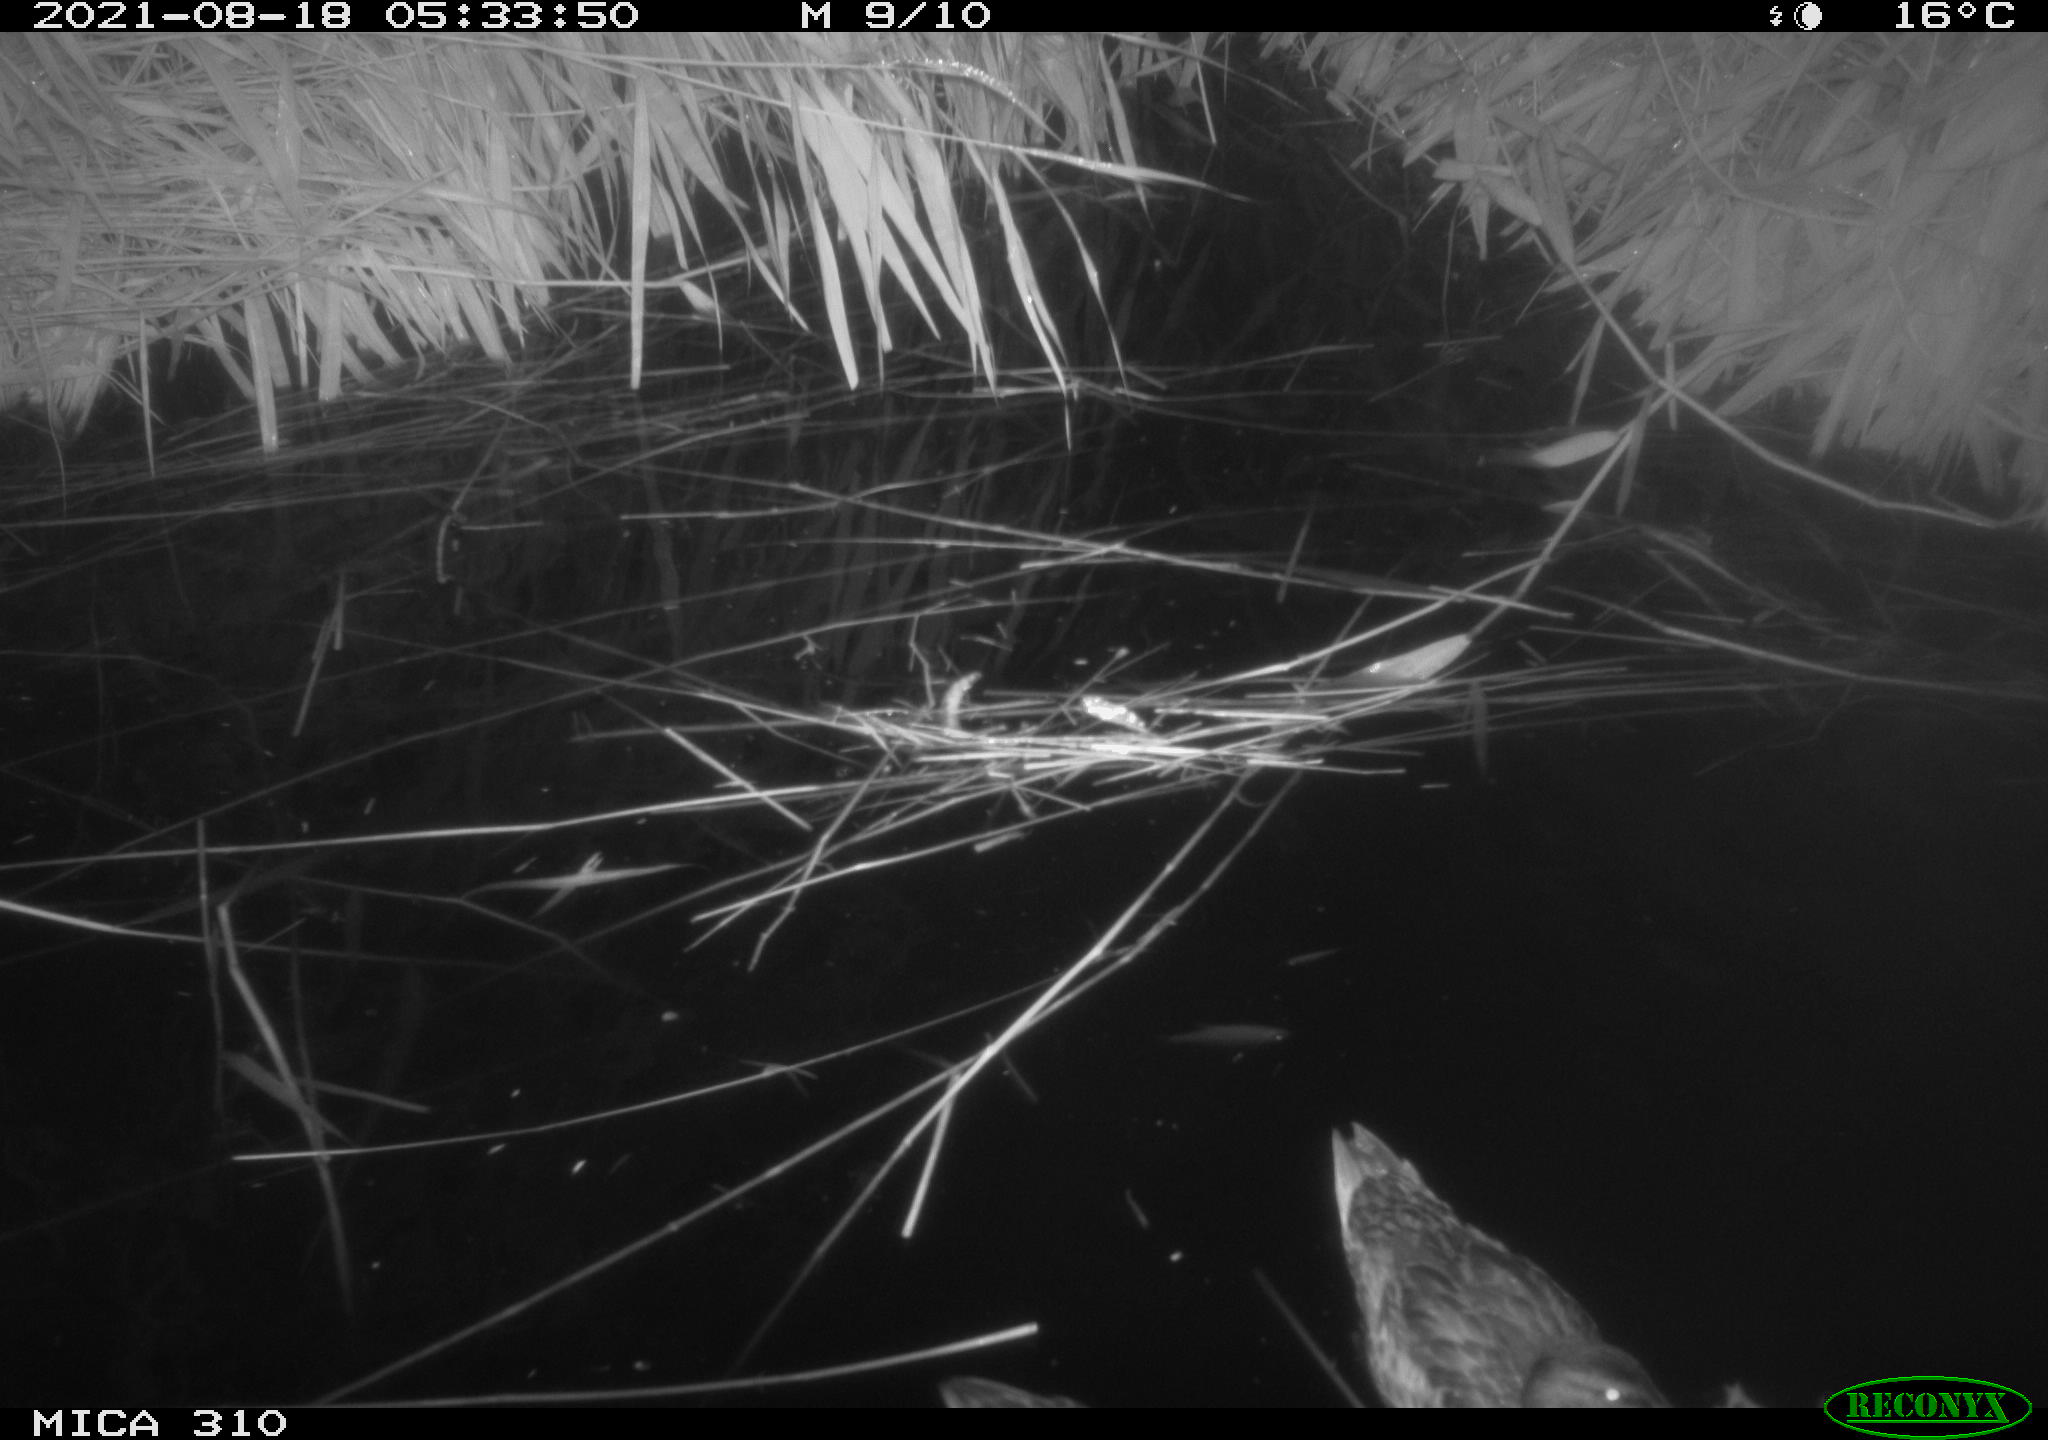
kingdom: Animalia
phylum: Chordata
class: Aves
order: Anseriformes
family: Anatidae
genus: Anas
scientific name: Anas platyrhynchos
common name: Mallard
